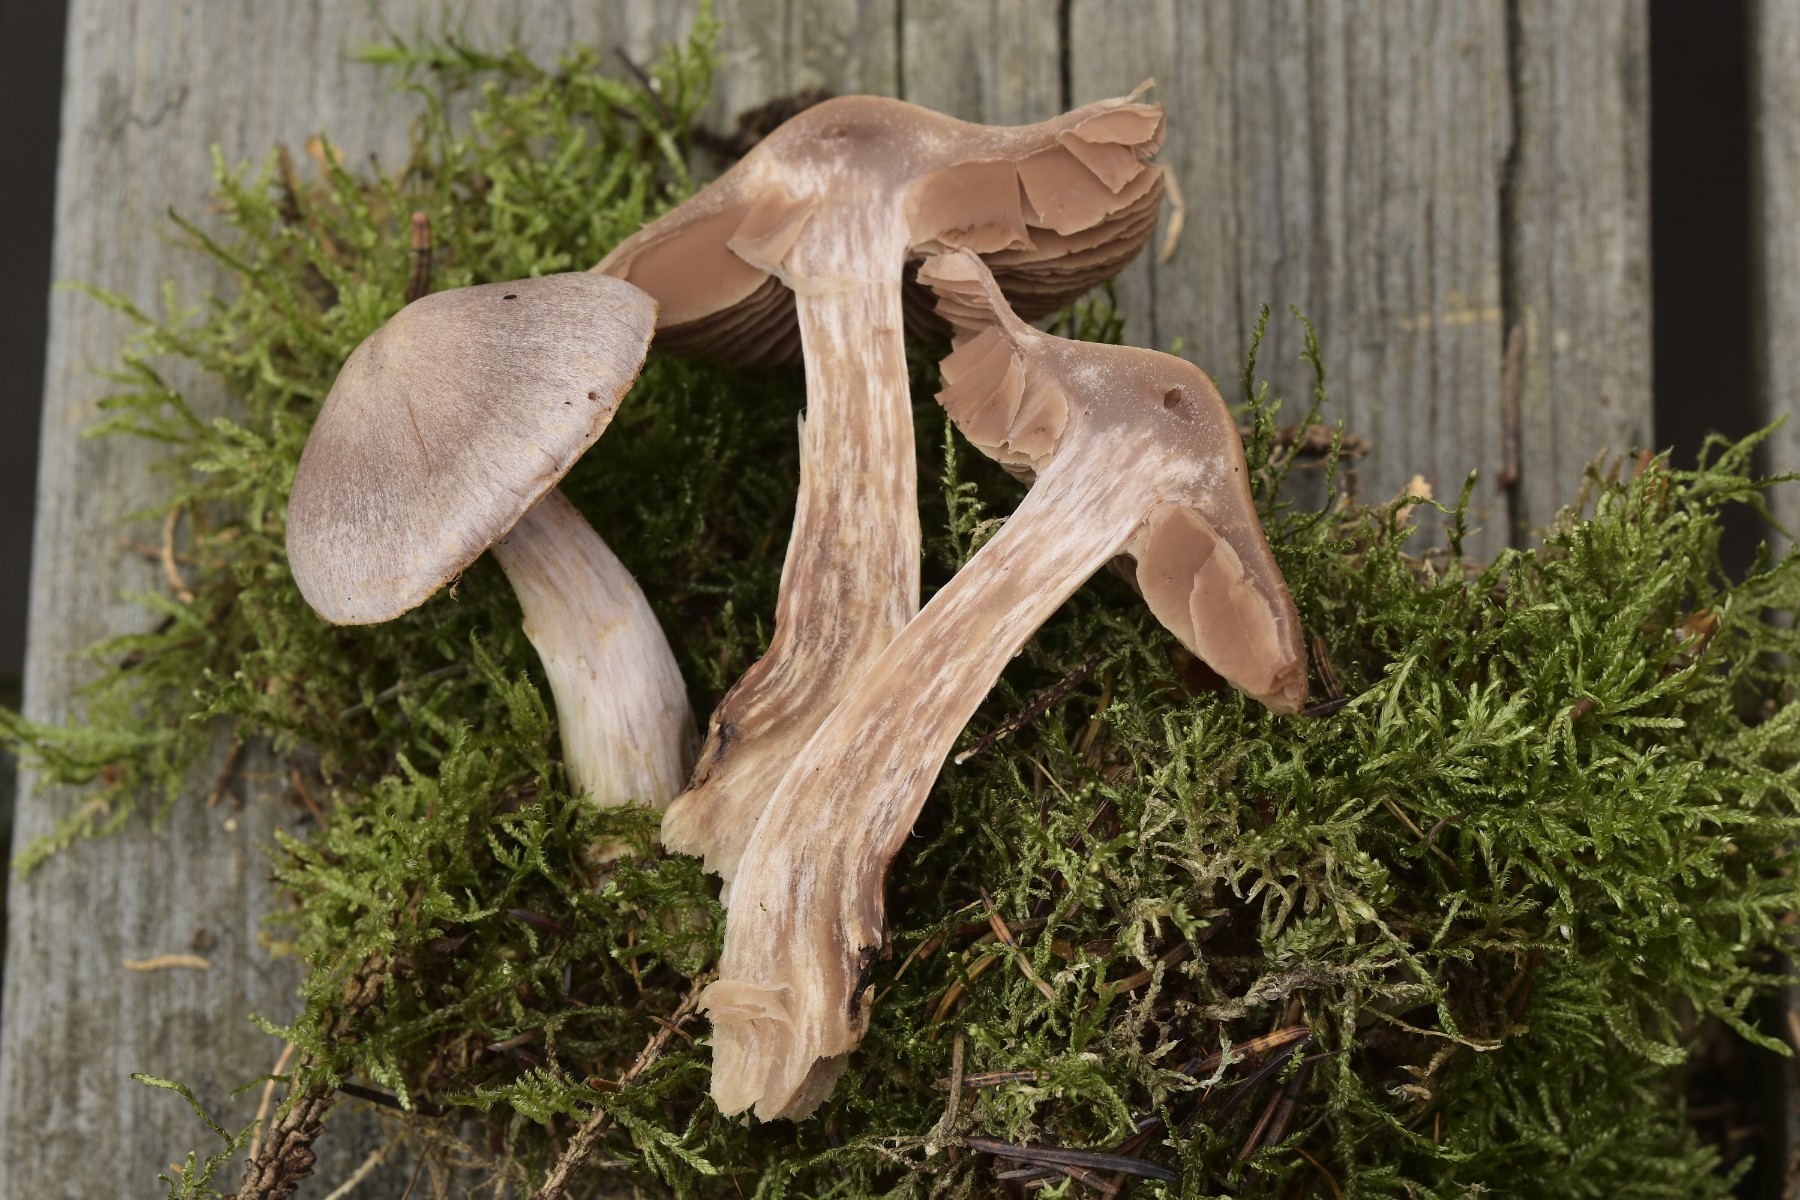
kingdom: Fungi
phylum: Basidiomycota
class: Agaricomycetes
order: Agaricales
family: Cortinariaceae
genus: Cortinarius
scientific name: Cortinarius malachius
